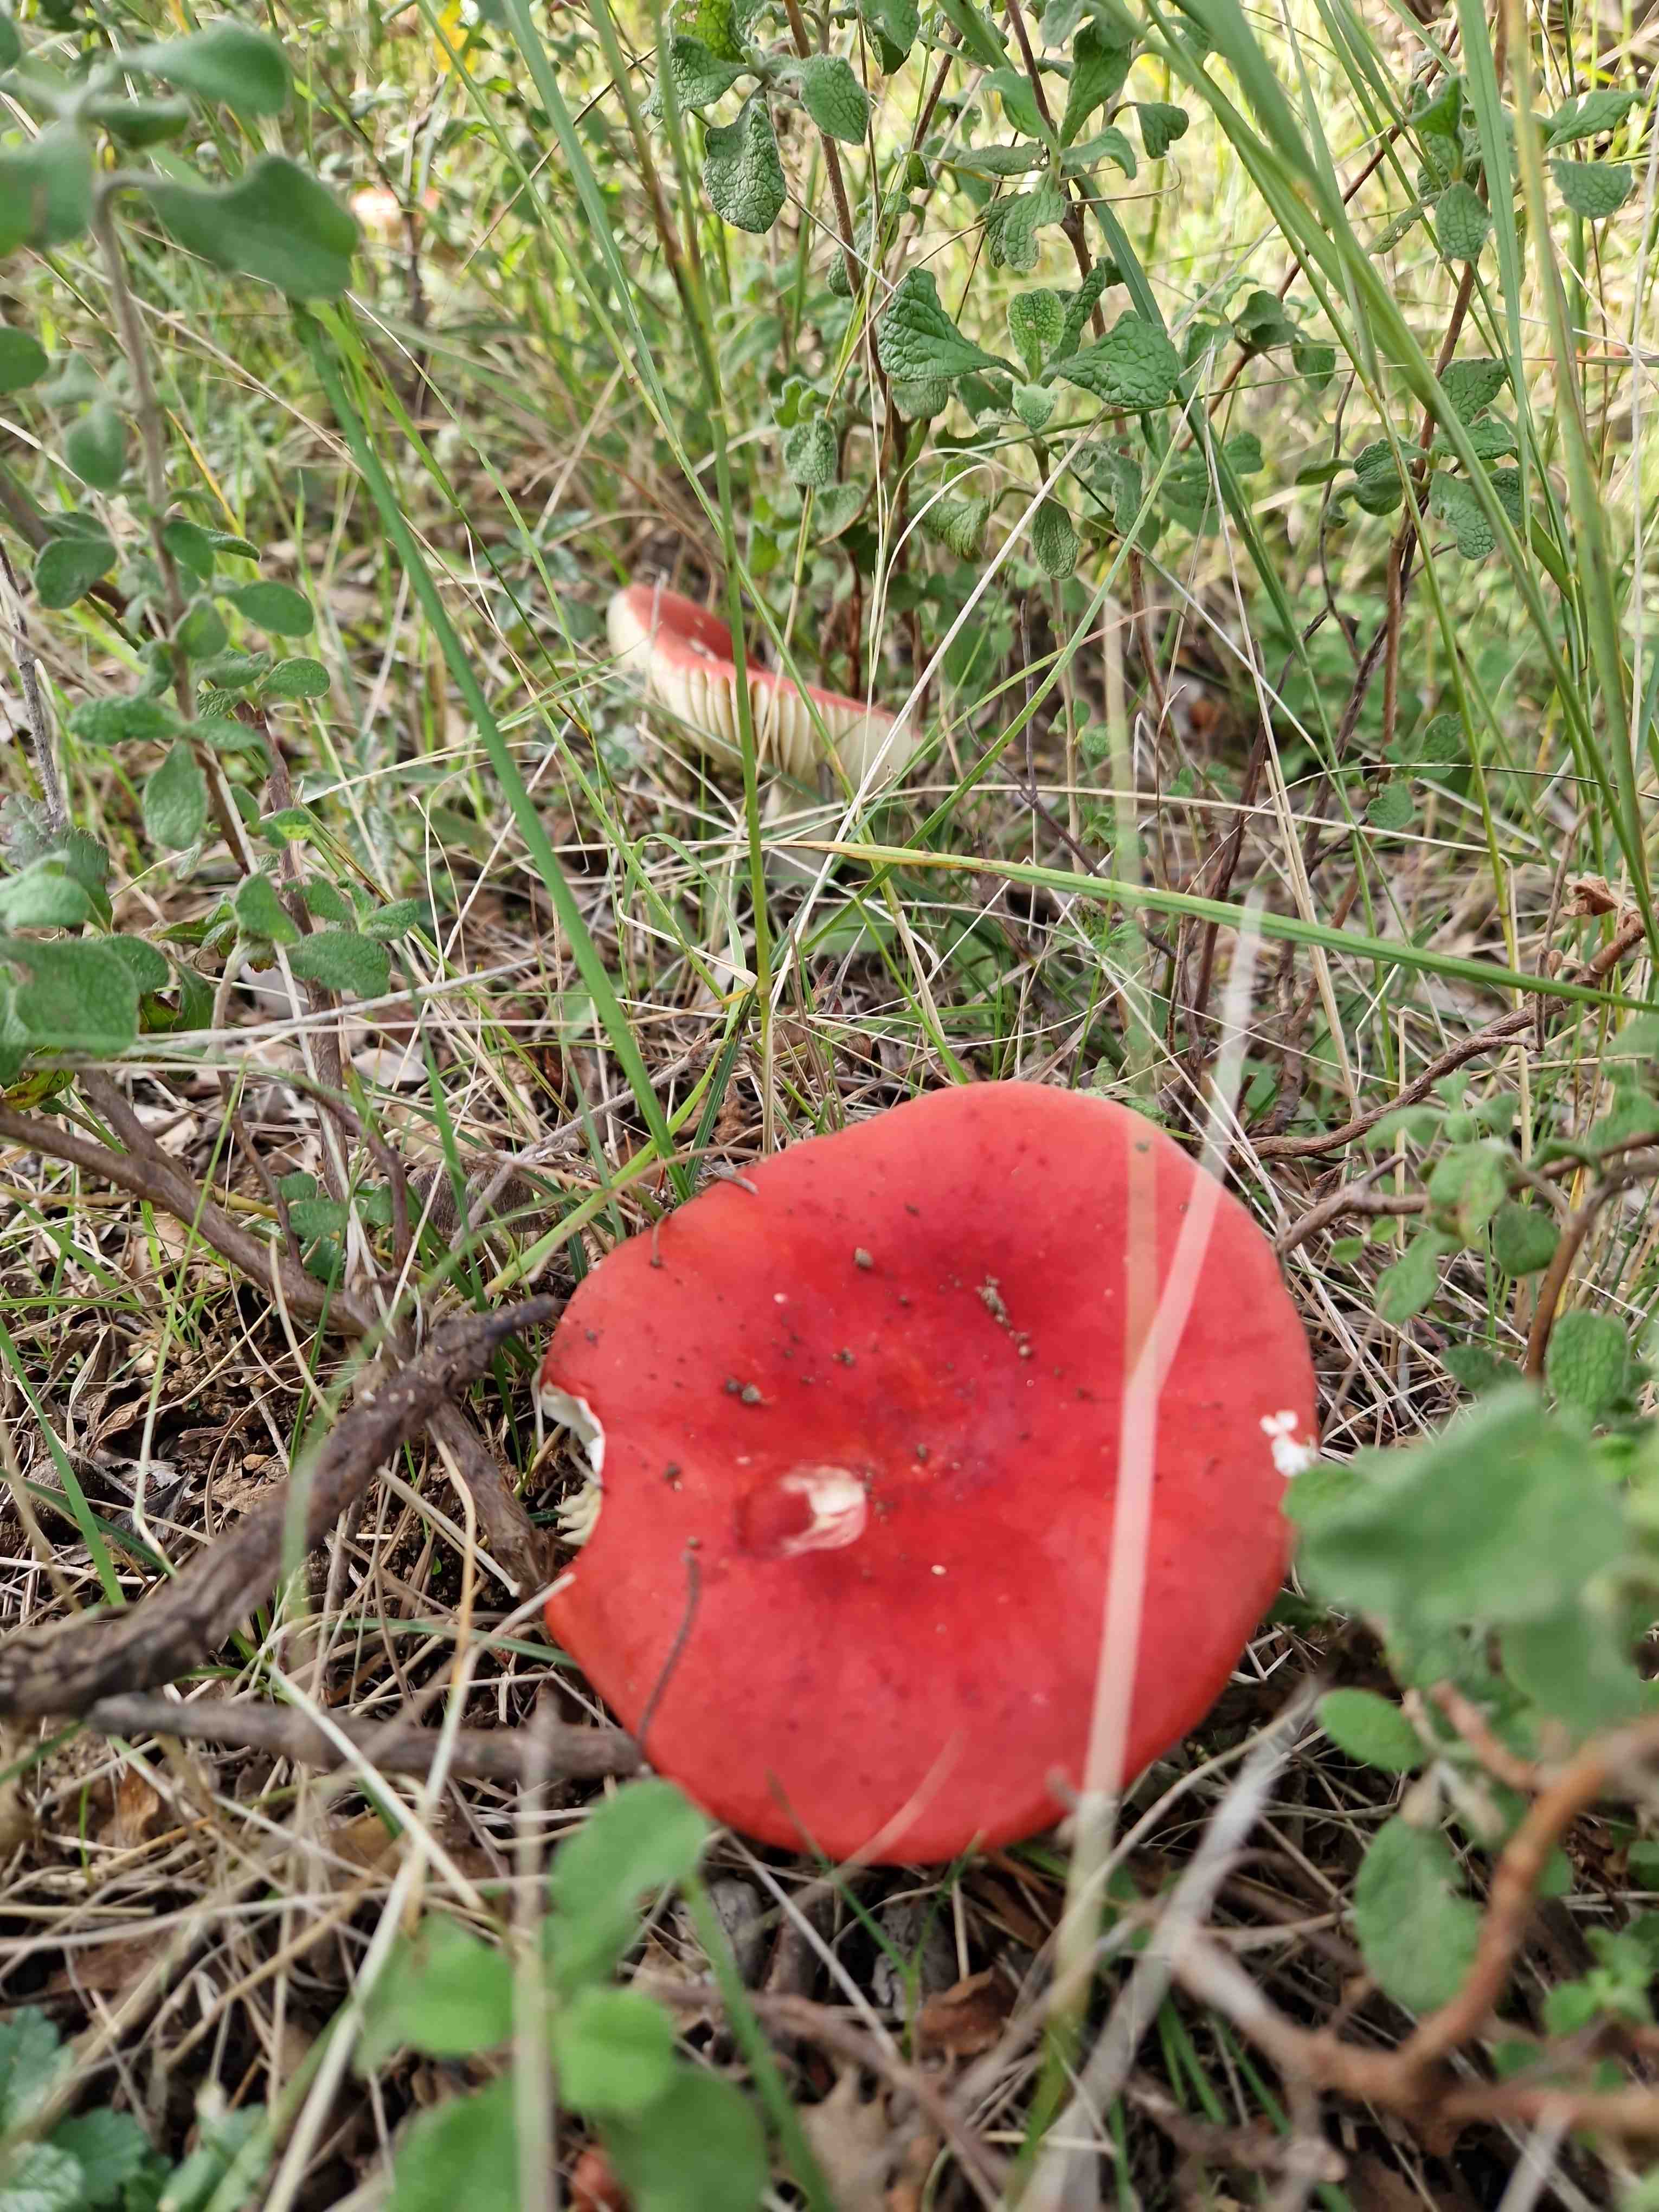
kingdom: Fungi
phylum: Basidiomycota
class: Agaricomycetes
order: Russulales
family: Russulaceae
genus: Russula
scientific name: Russula
